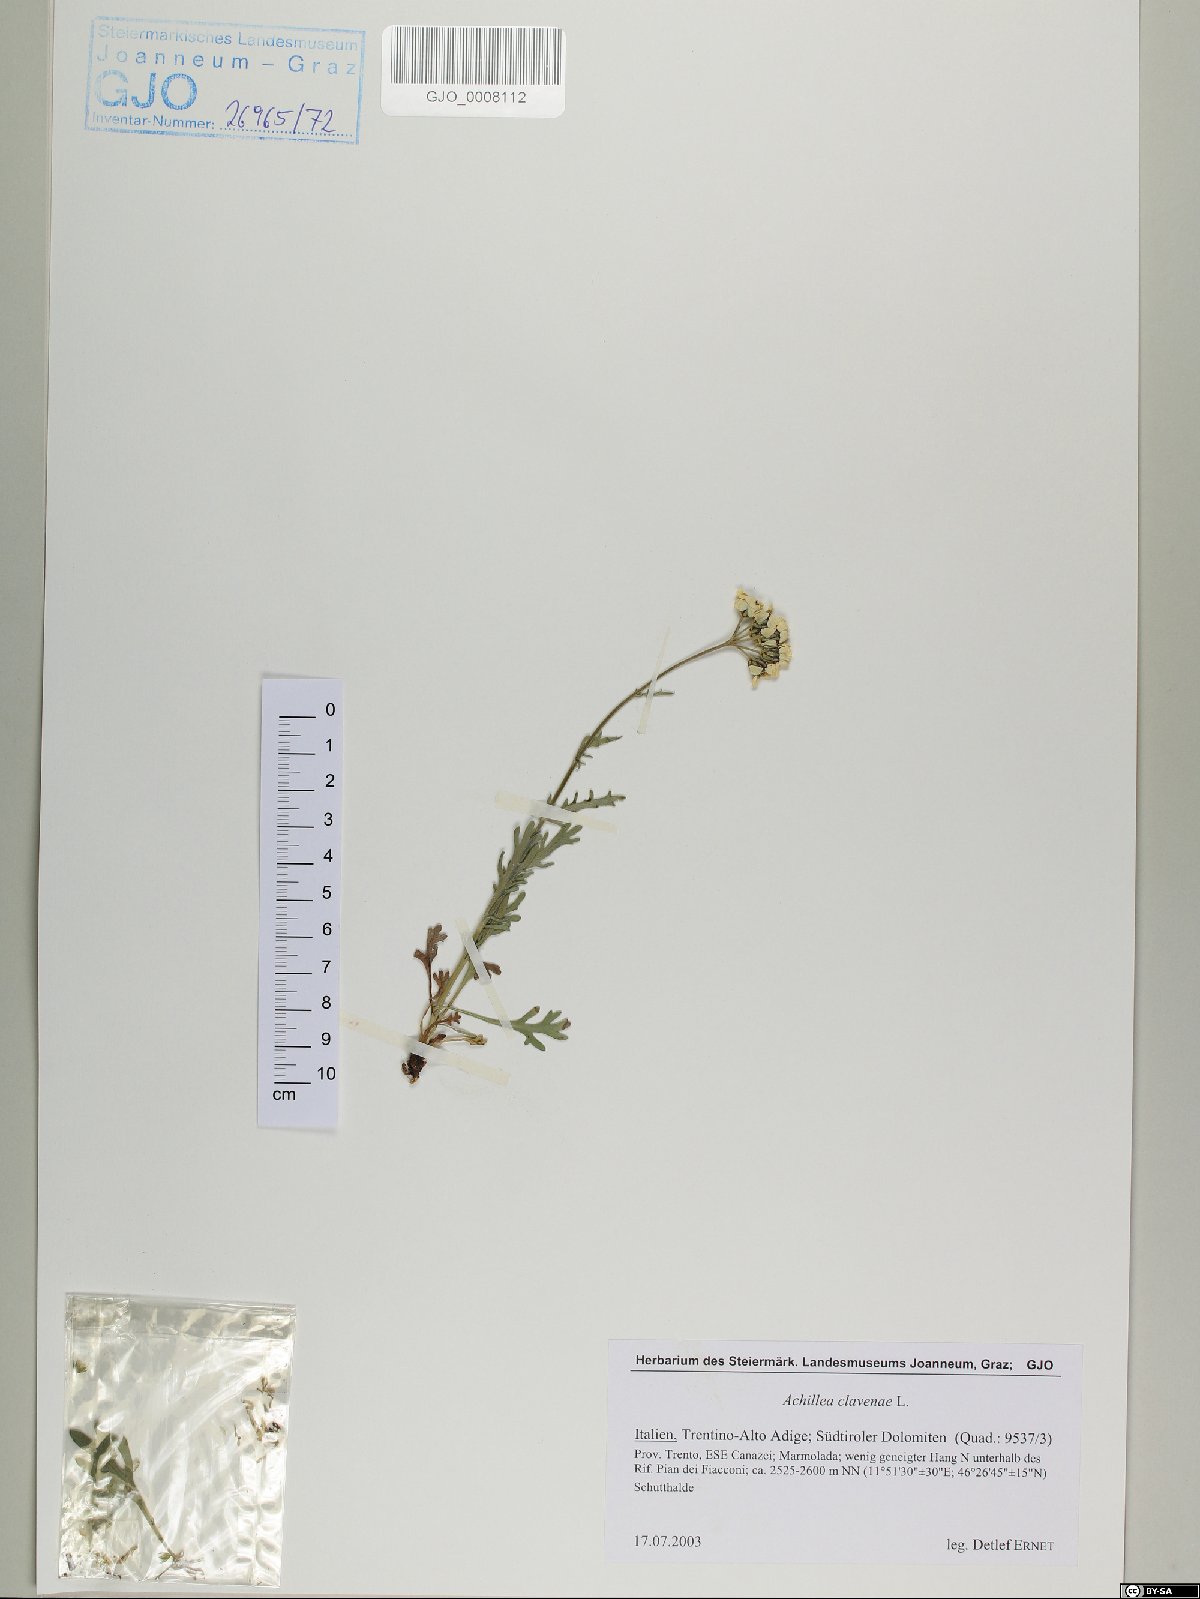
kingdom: Plantae
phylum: Tracheophyta
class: Magnoliopsida
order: Asterales
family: Asteraceae
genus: Achillea
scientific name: Achillea clavennae
